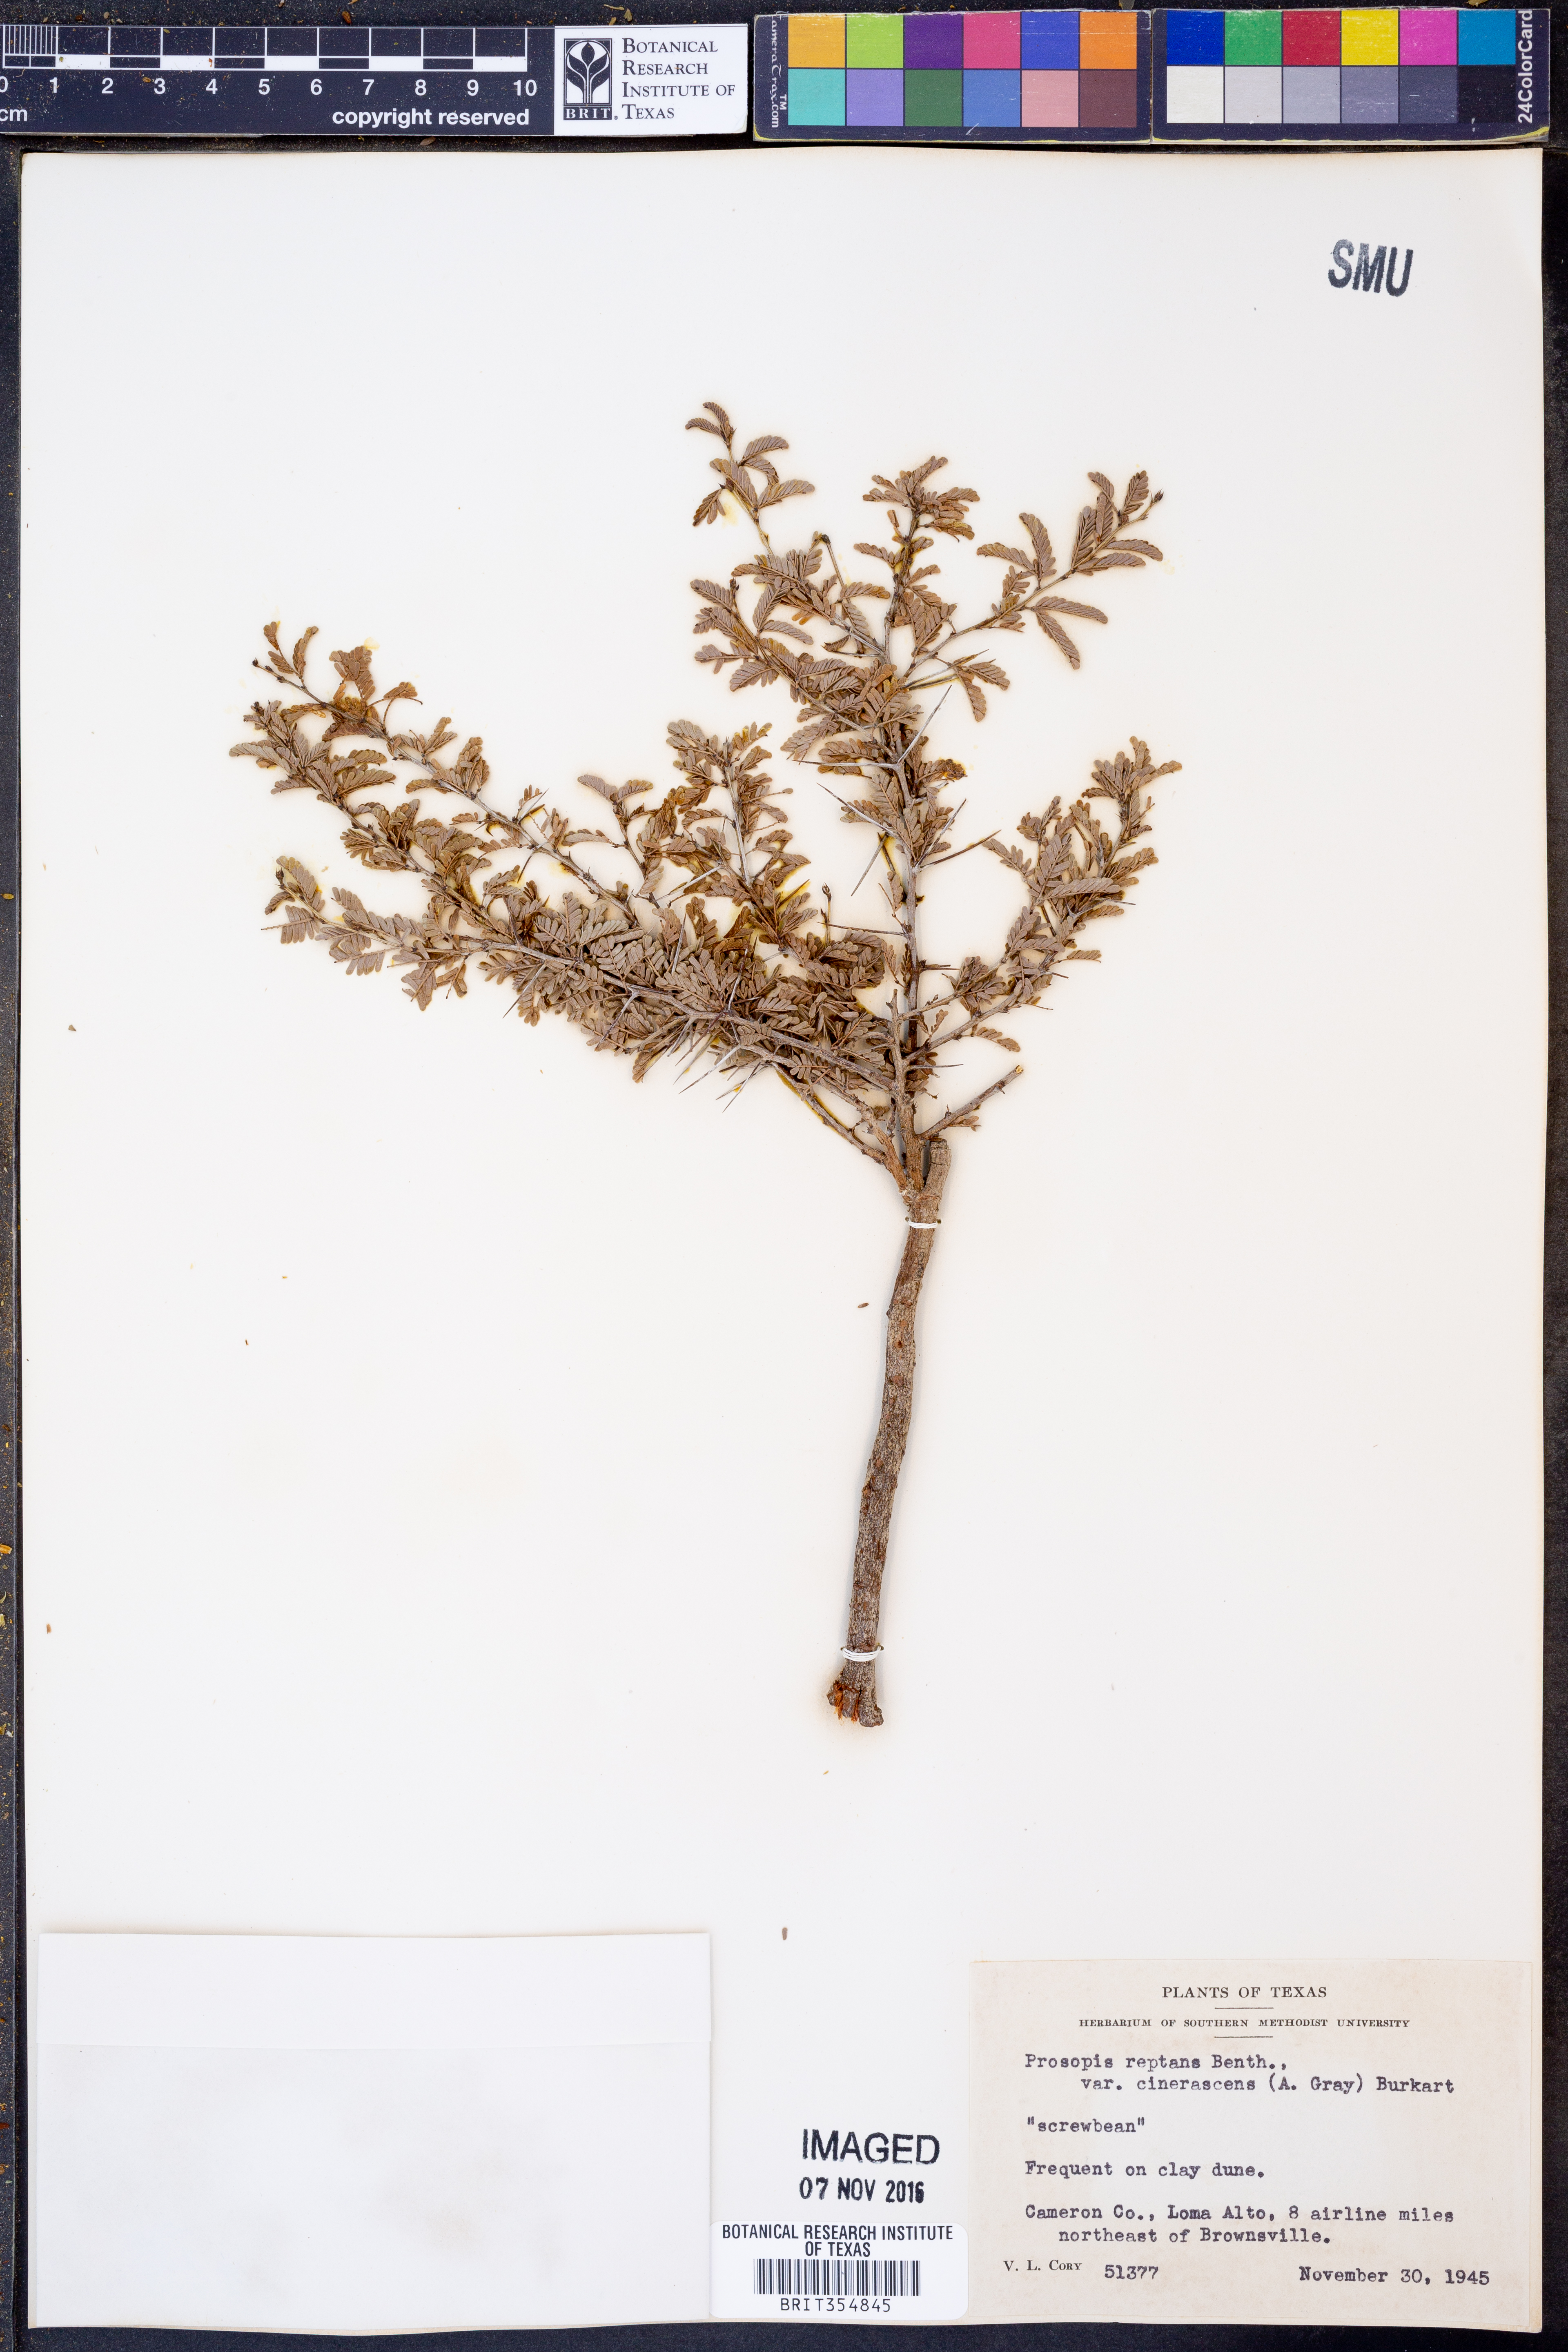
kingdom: Plantae
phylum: Tracheophyta
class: Magnoliopsida
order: Fabales
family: Fabaceae
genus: Prosopis
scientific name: Prosopis cinerascens
